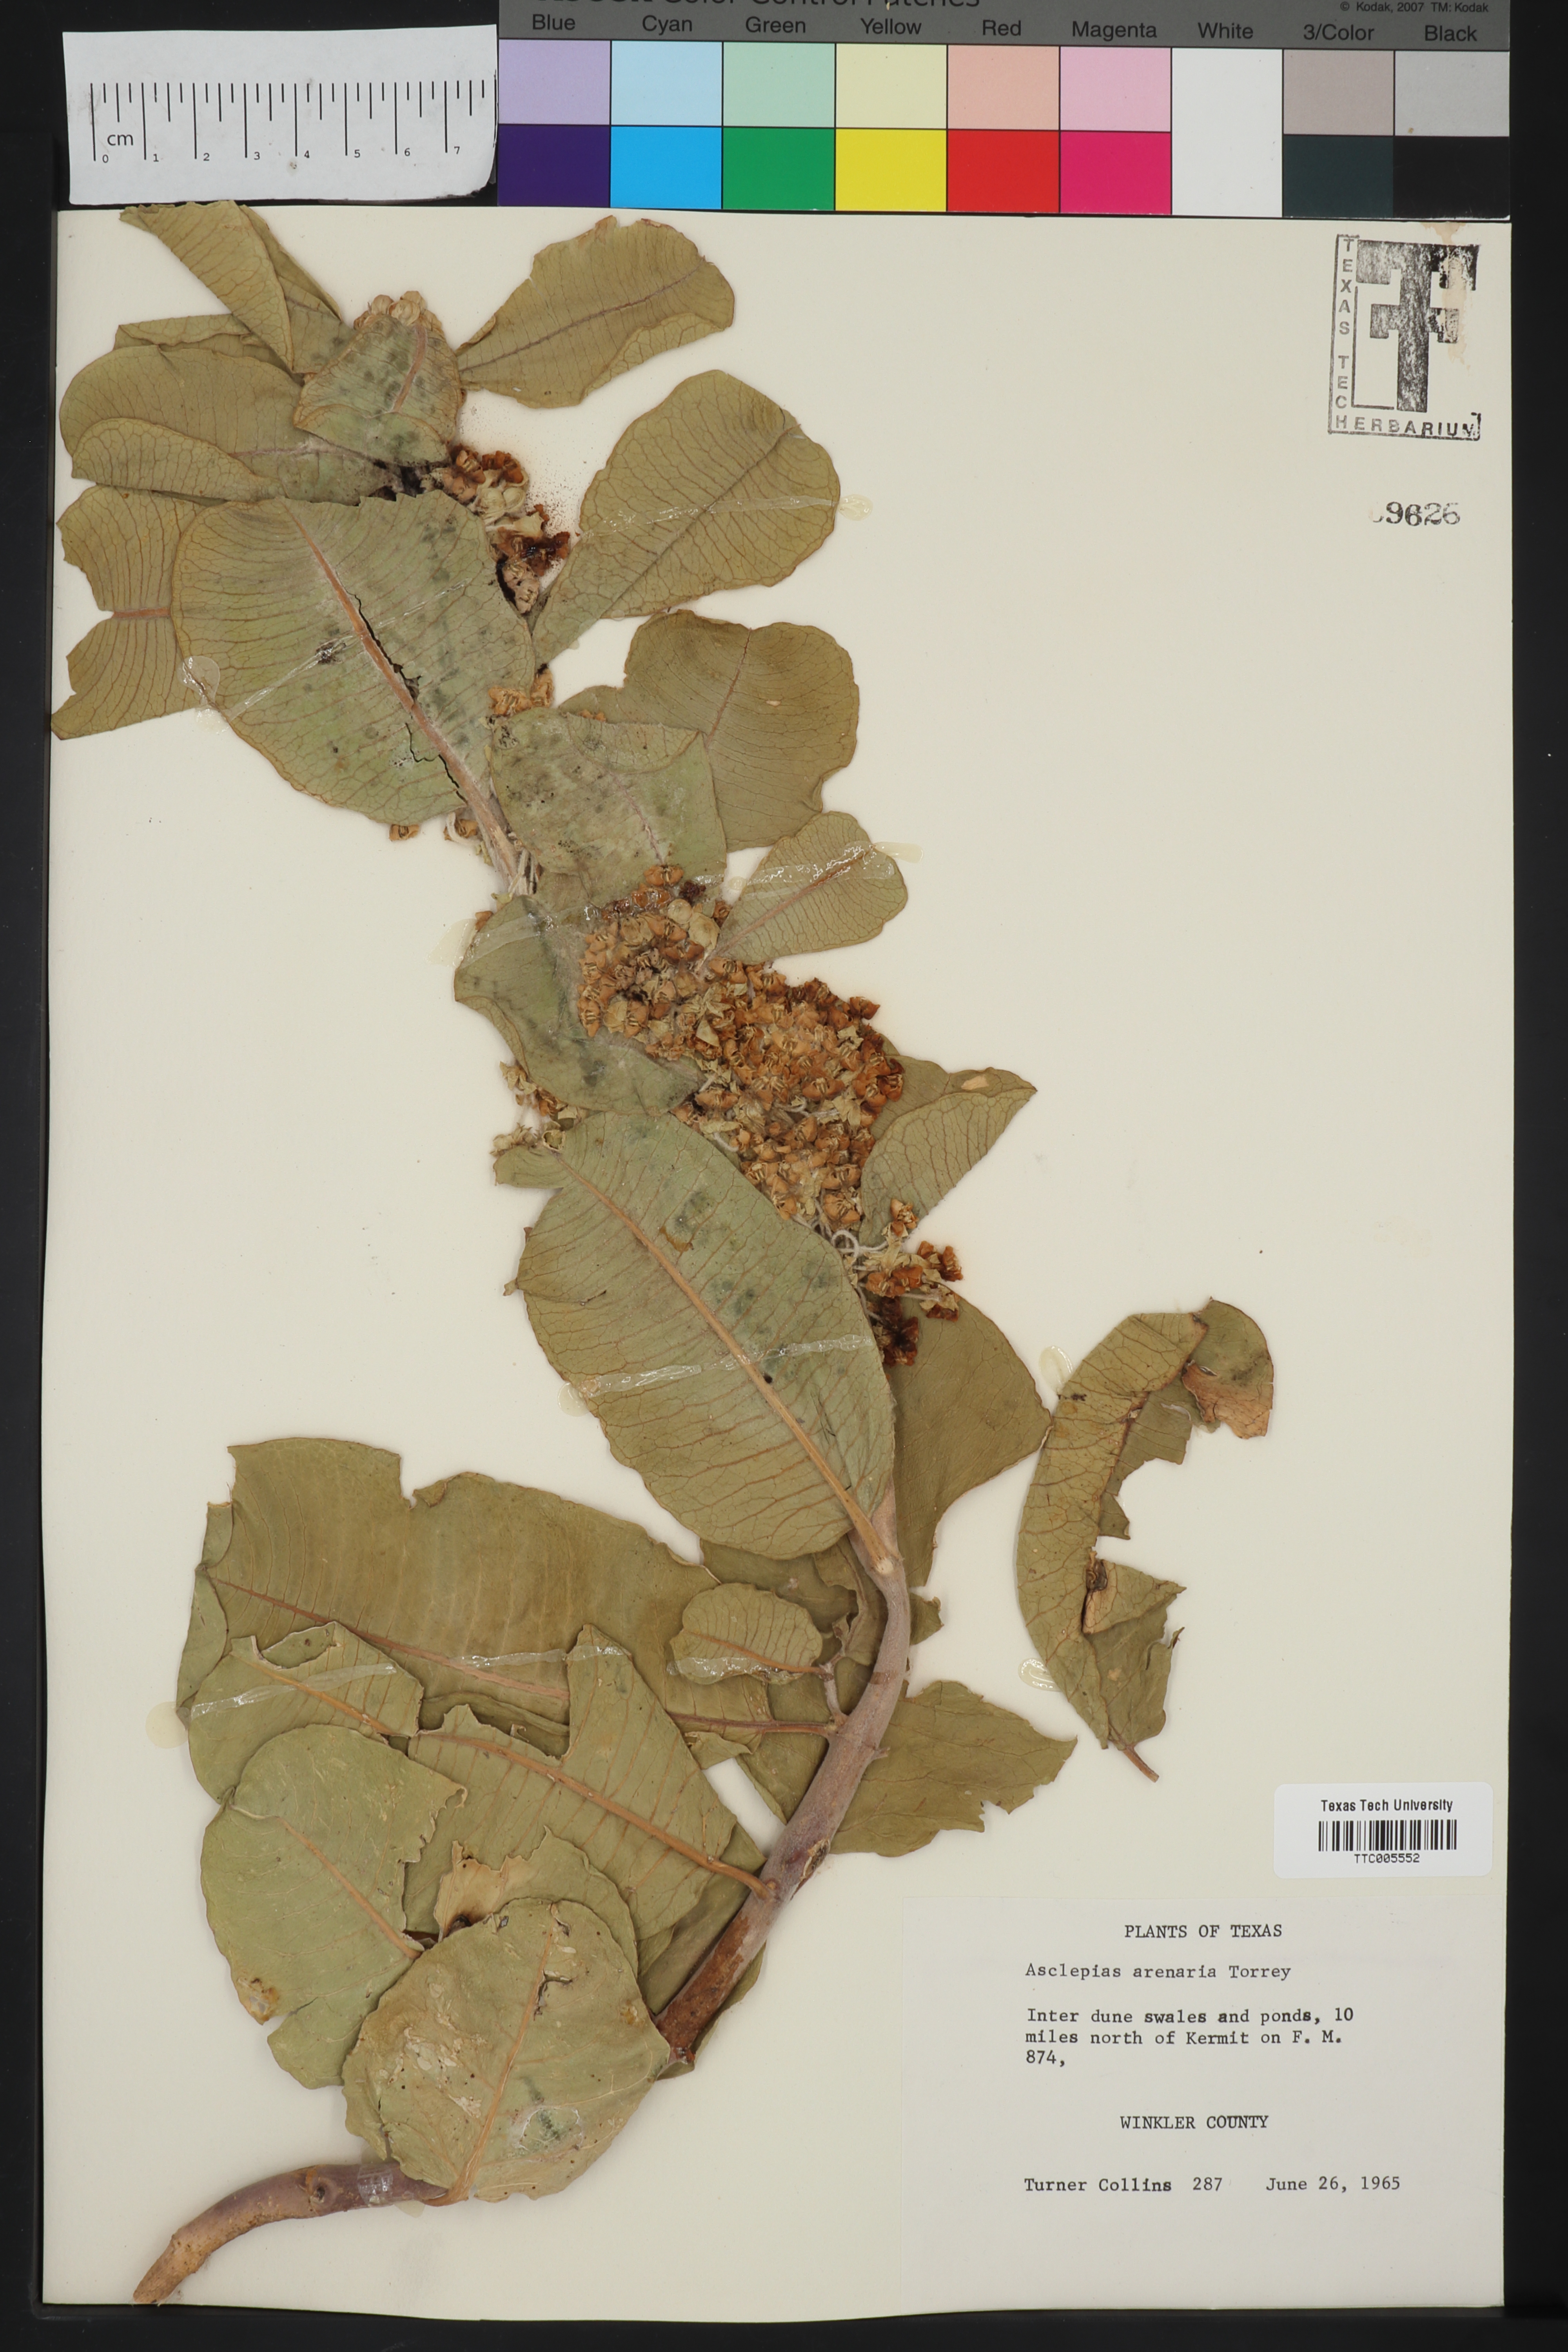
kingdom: Plantae
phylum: Tracheophyta
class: Magnoliopsida
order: Gentianales
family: Apocynaceae
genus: Asclepias
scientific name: Asclepias arenaria
